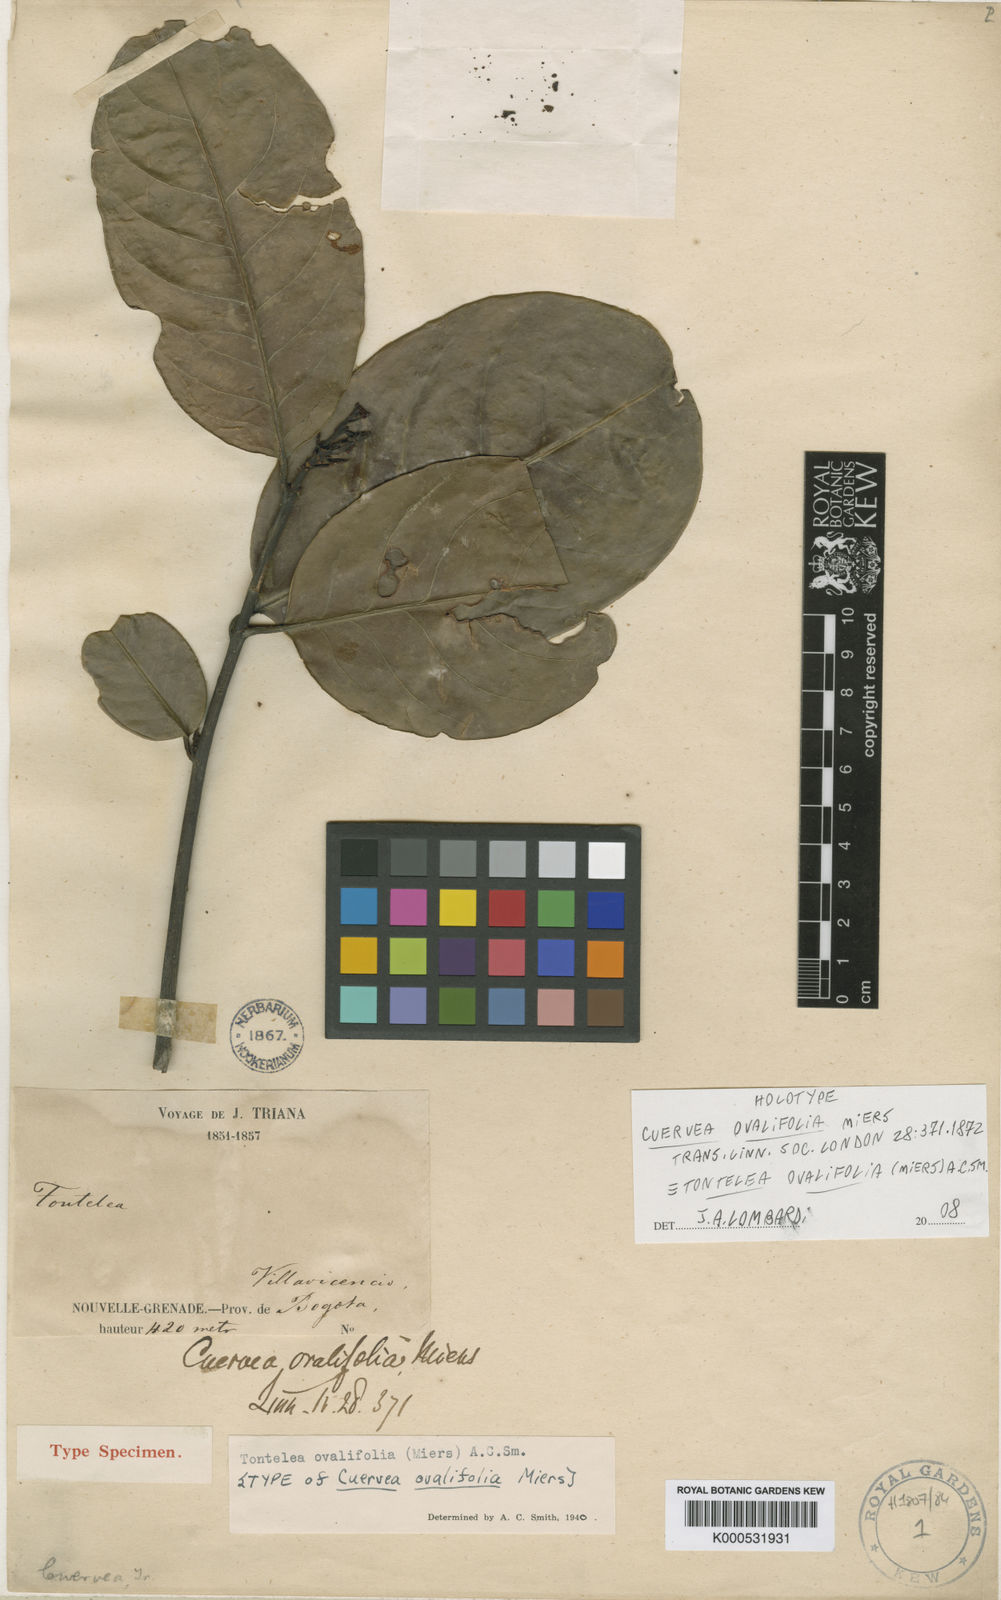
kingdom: Plantae
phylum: Tracheophyta
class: Magnoliopsida
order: Celastrales
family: Celastraceae
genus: Tontelea
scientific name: Tontelea passiflora
